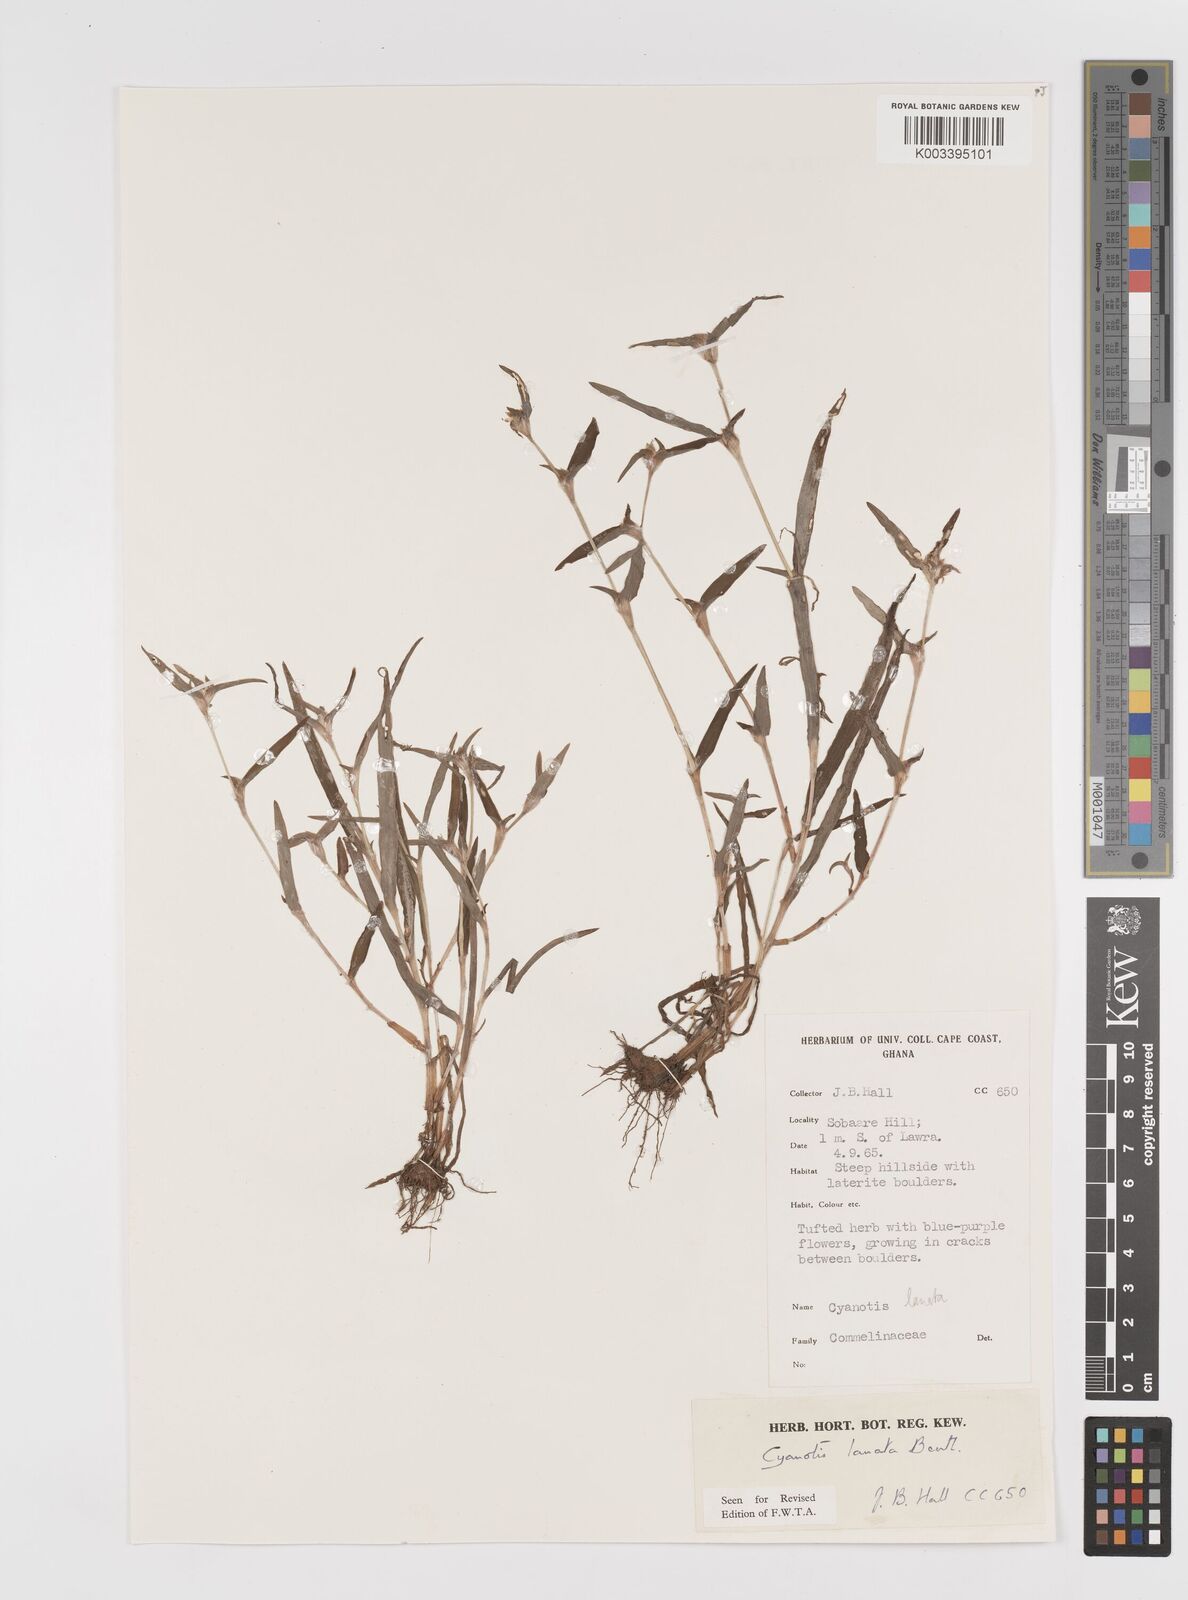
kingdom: Plantae
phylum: Tracheophyta
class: Liliopsida
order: Commelinales
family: Commelinaceae
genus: Cyanotis
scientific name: Cyanotis lanata
